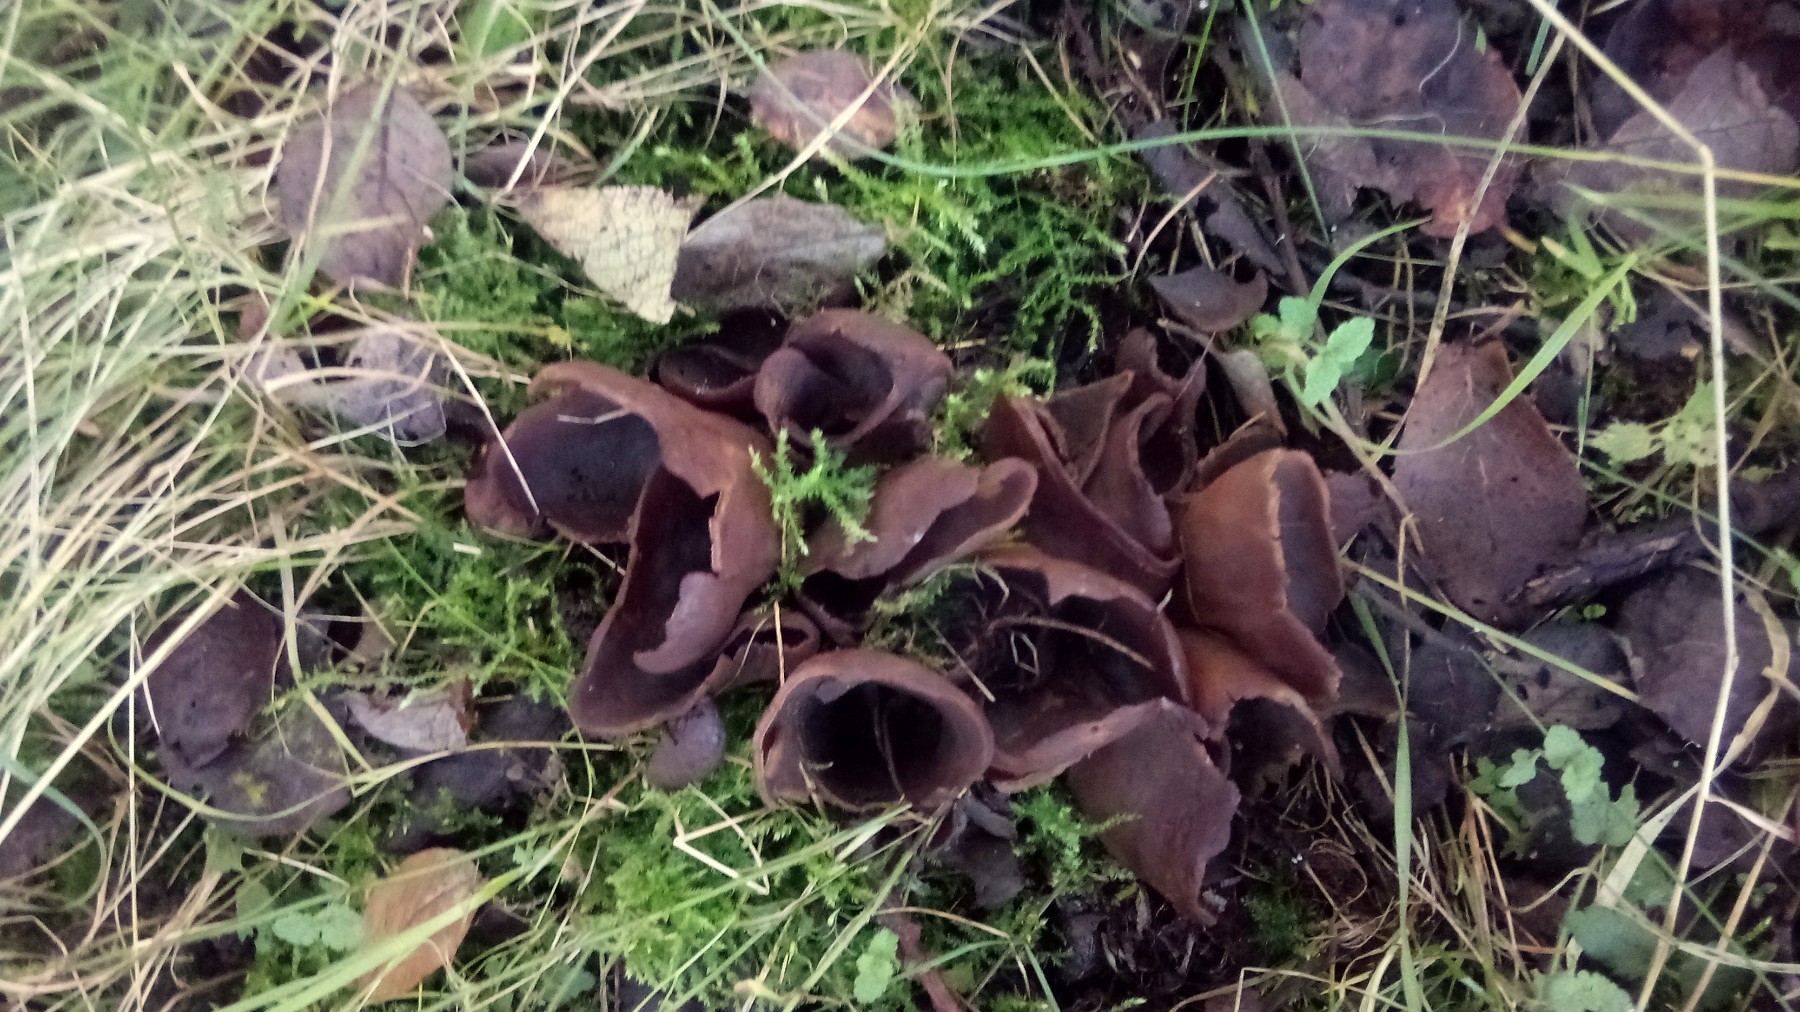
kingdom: Fungi
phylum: Ascomycota
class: Pezizomycetes
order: Pezizales
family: Otideaceae
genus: Otidea
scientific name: Otidea bufonia
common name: brun ørebæger
